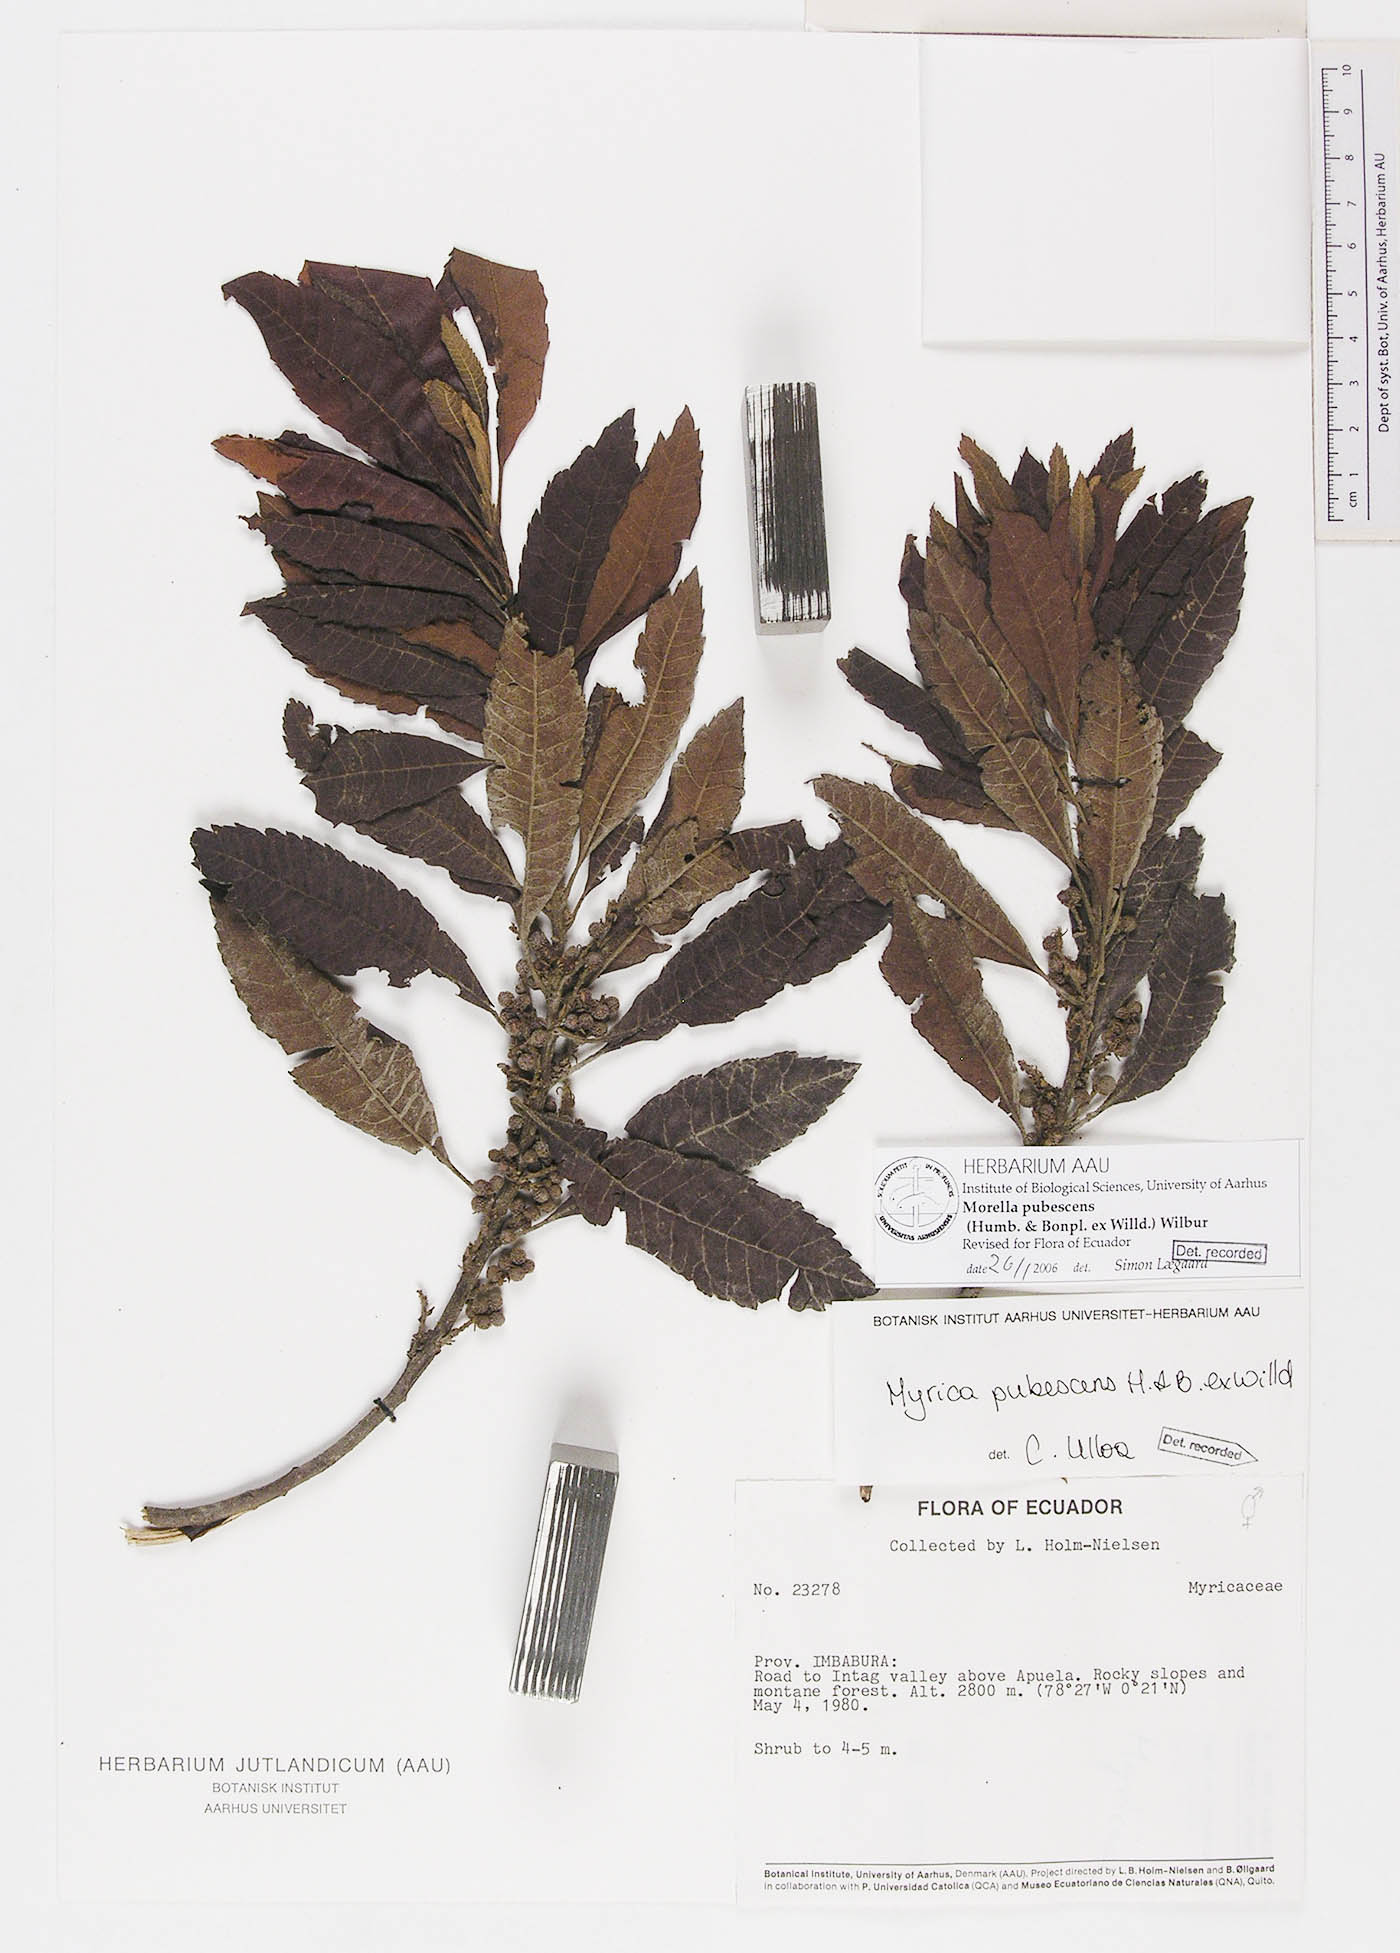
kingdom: Plantae
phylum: Tracheophyta
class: Magnoliopsida
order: Fagales
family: Myricaceae
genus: Morella
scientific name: Morella pubescens
